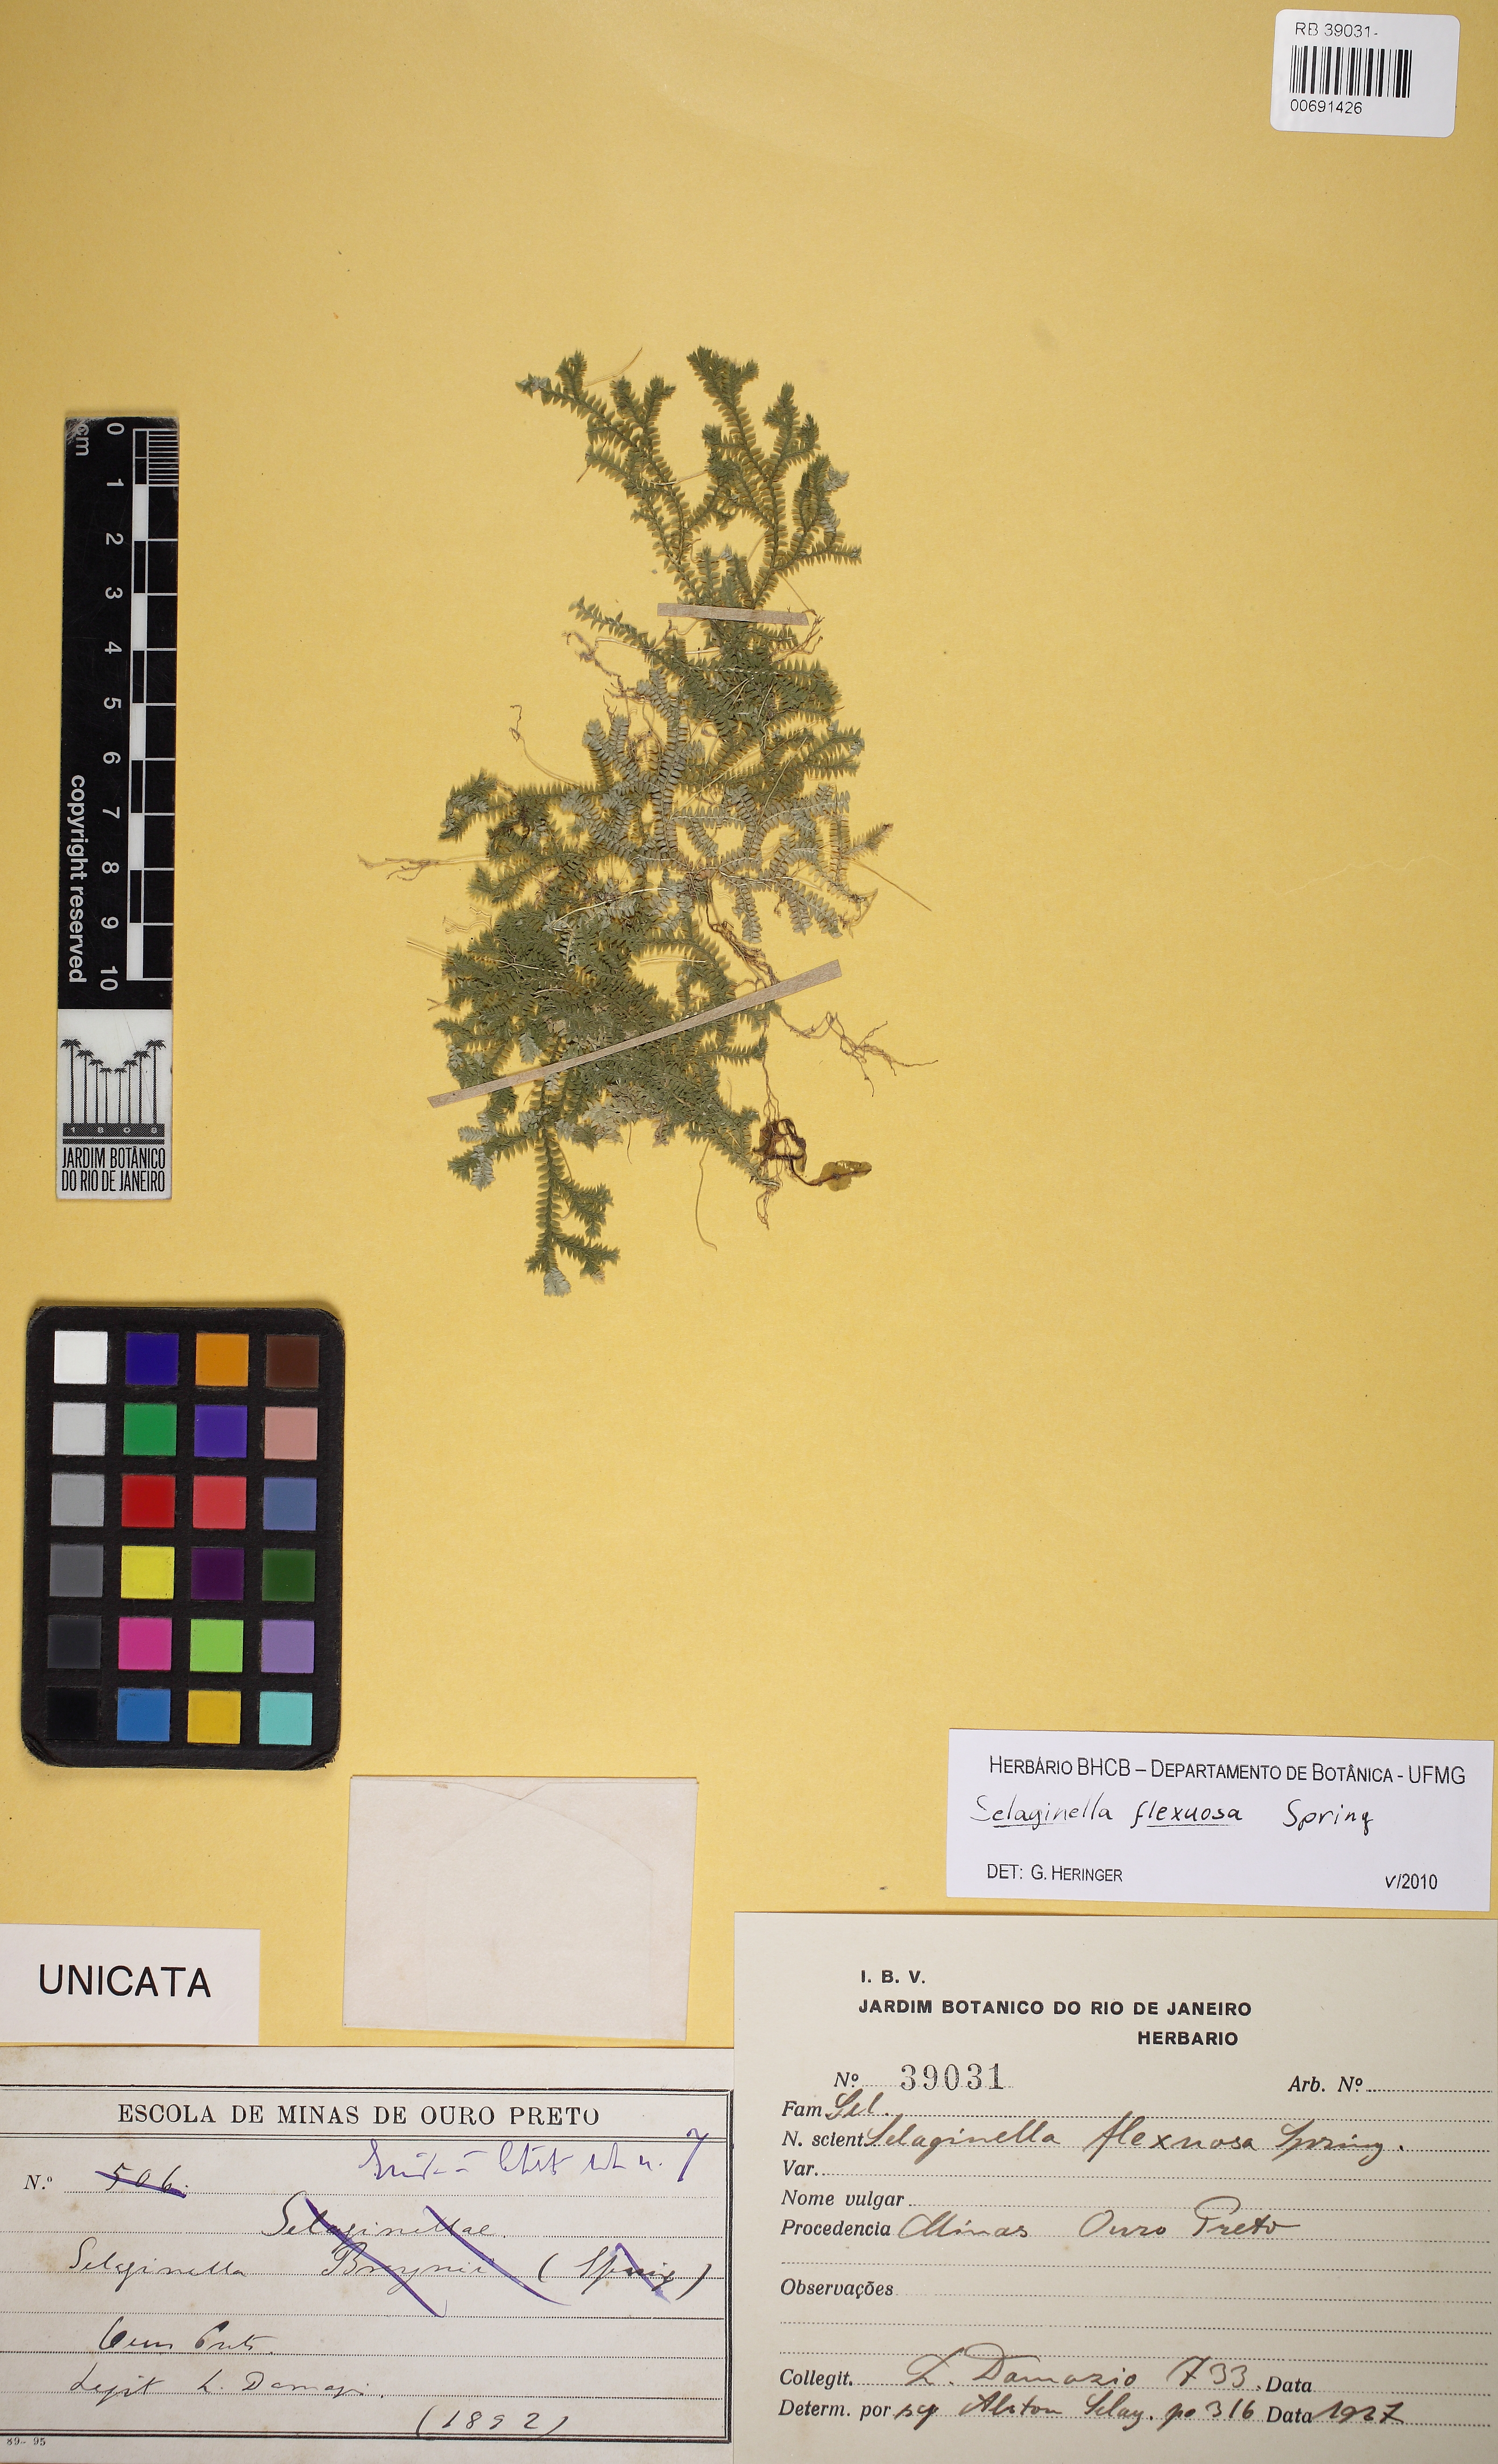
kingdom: Plantae
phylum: Tracheophyta
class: Lycopodiopsida
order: Selaginellales
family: Selaginellaceae
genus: Selaginella
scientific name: Selaginella flexuosa
